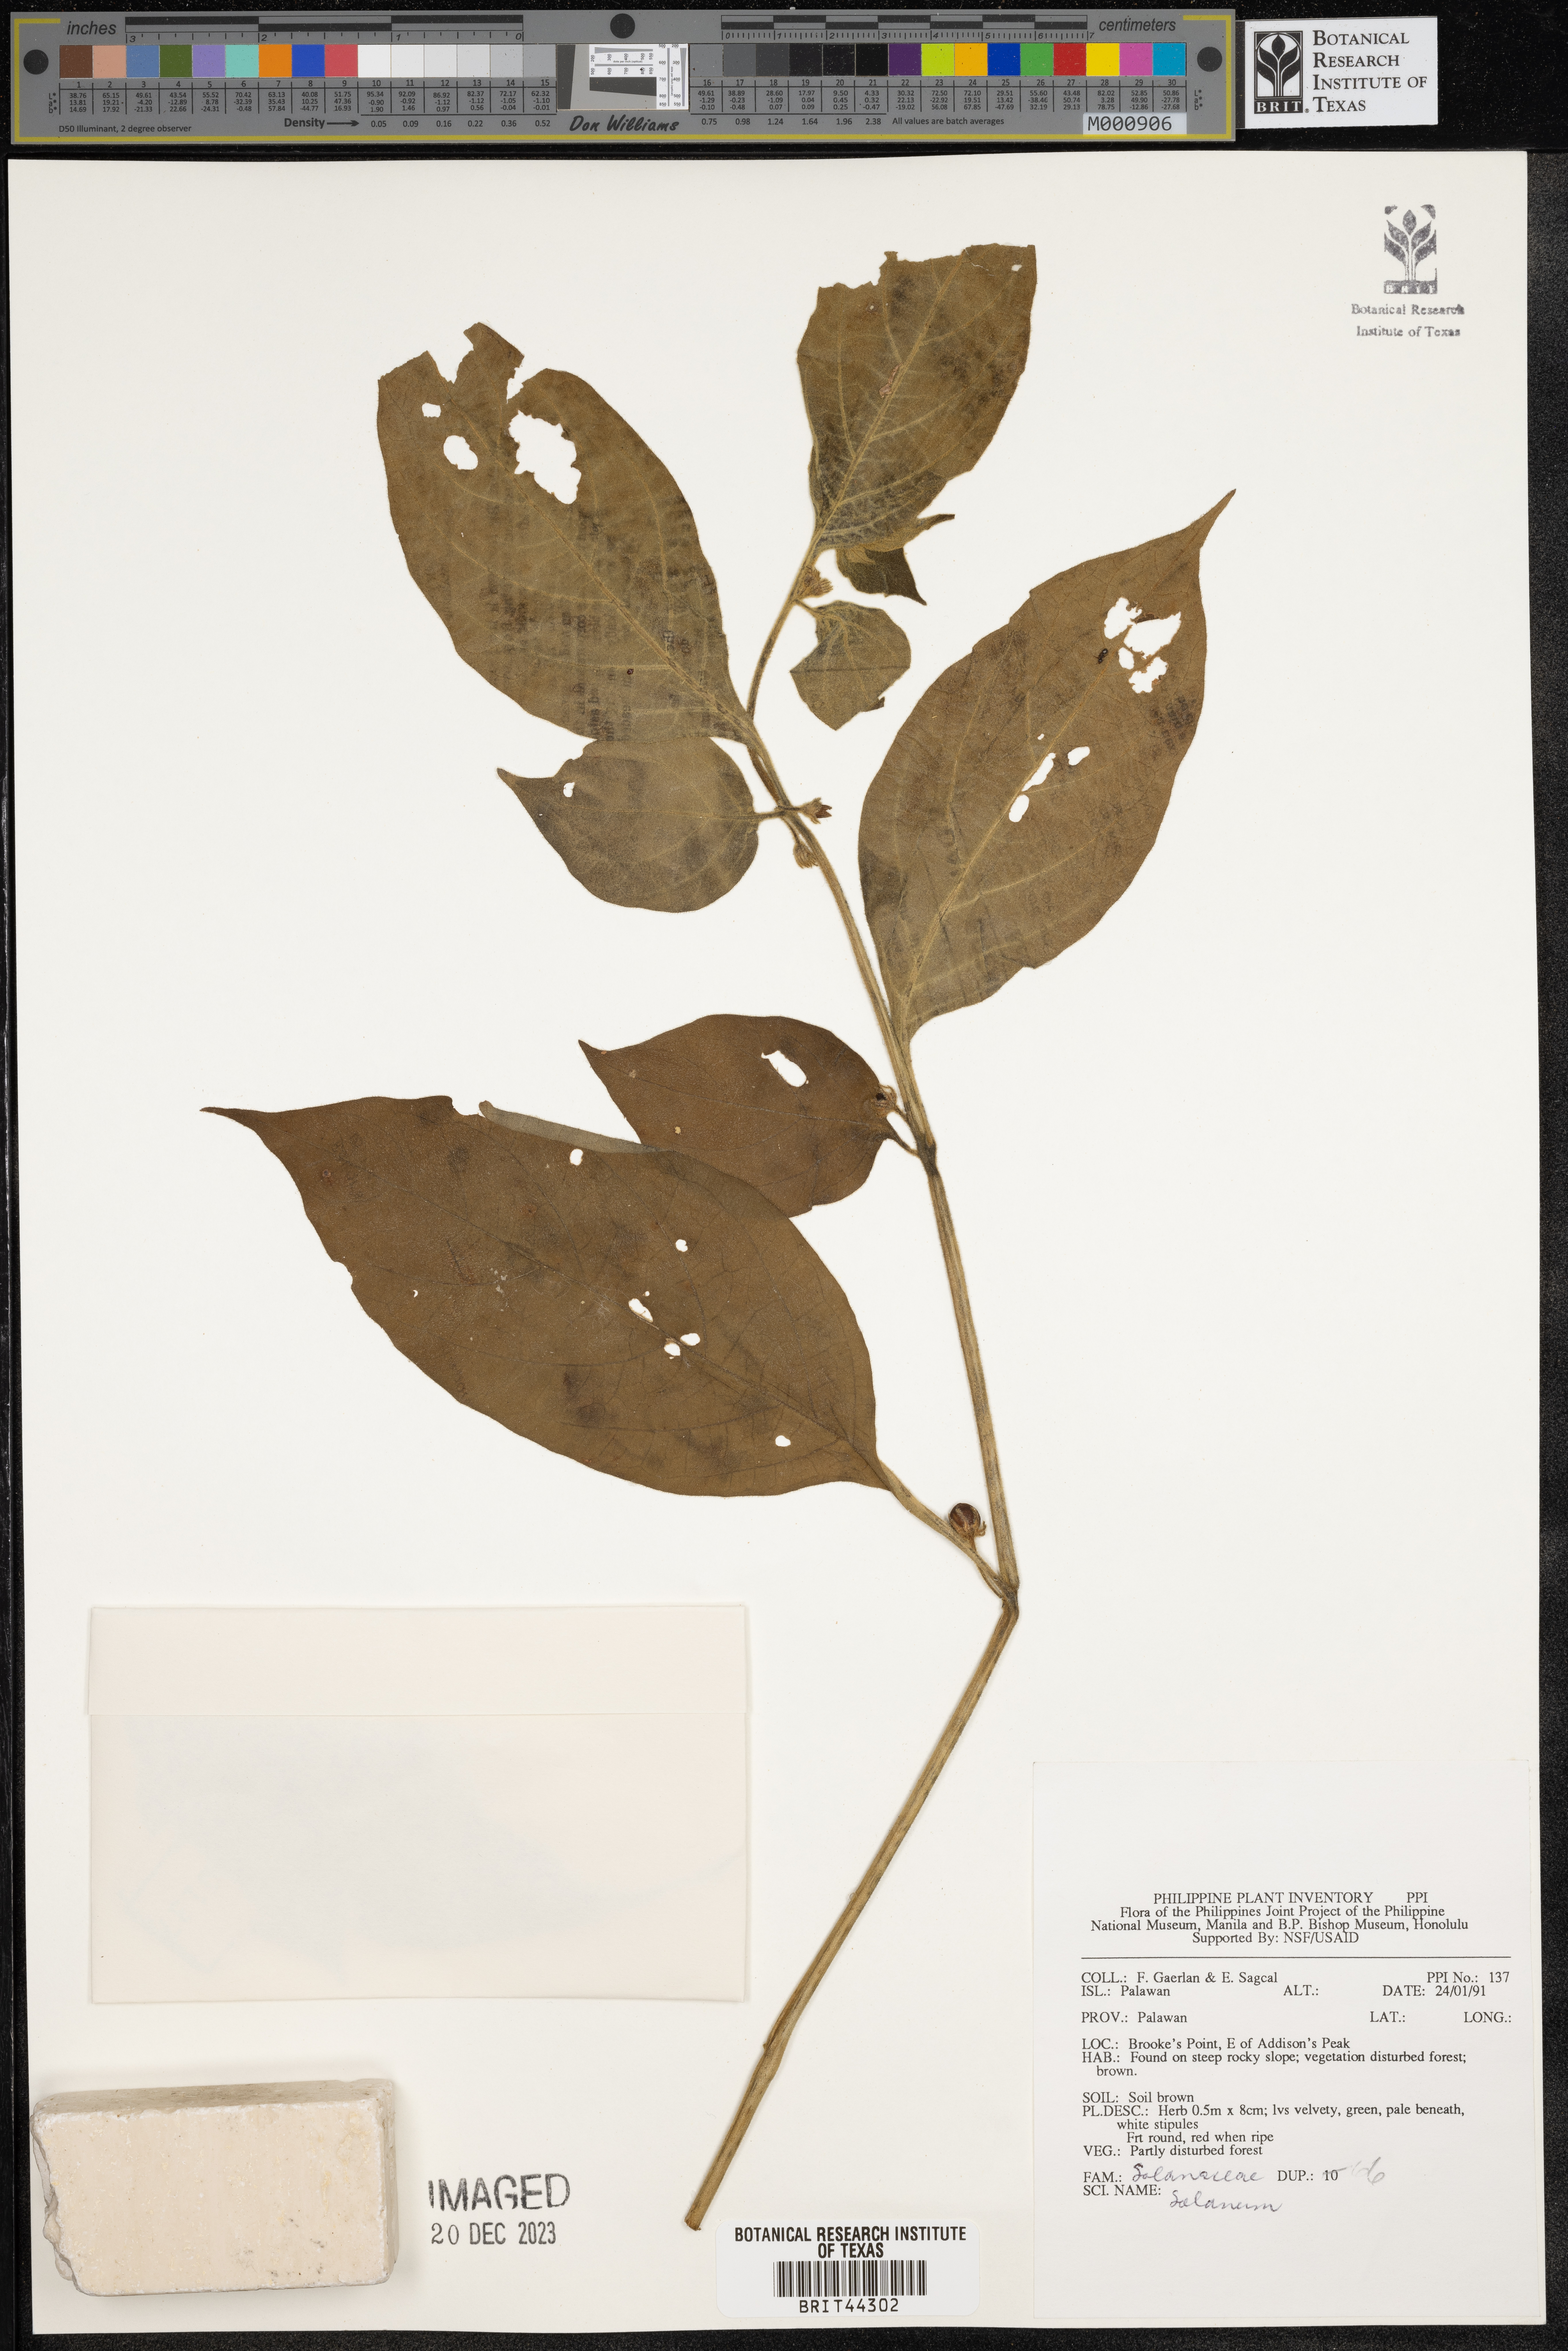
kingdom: Plantae
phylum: Tracheophyta
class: Magnoliopsida
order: Solanales
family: Solanaceae
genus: Solanum
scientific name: Solanum
